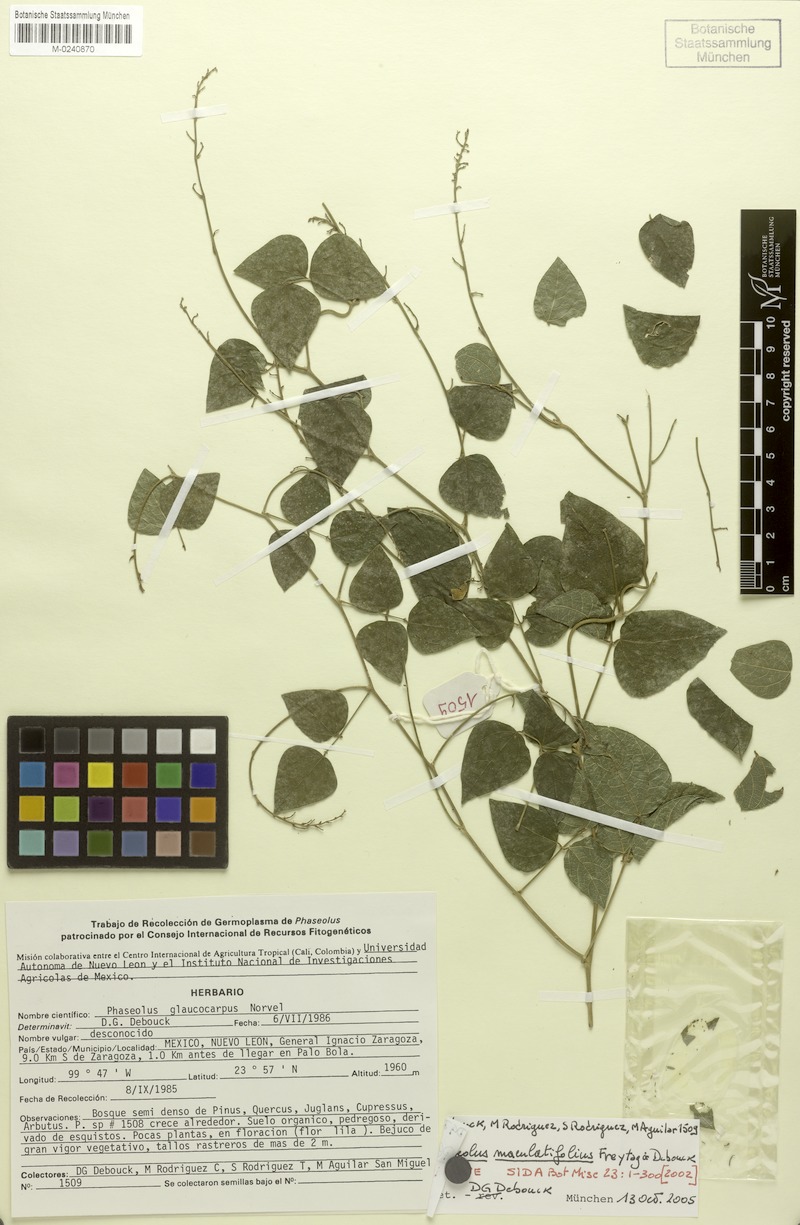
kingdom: Plantae
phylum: Tracheophyta
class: Magnoliopsida
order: Fabales
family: Fabaceae
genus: Phaseolus
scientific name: Phaseolus maculatifolius
